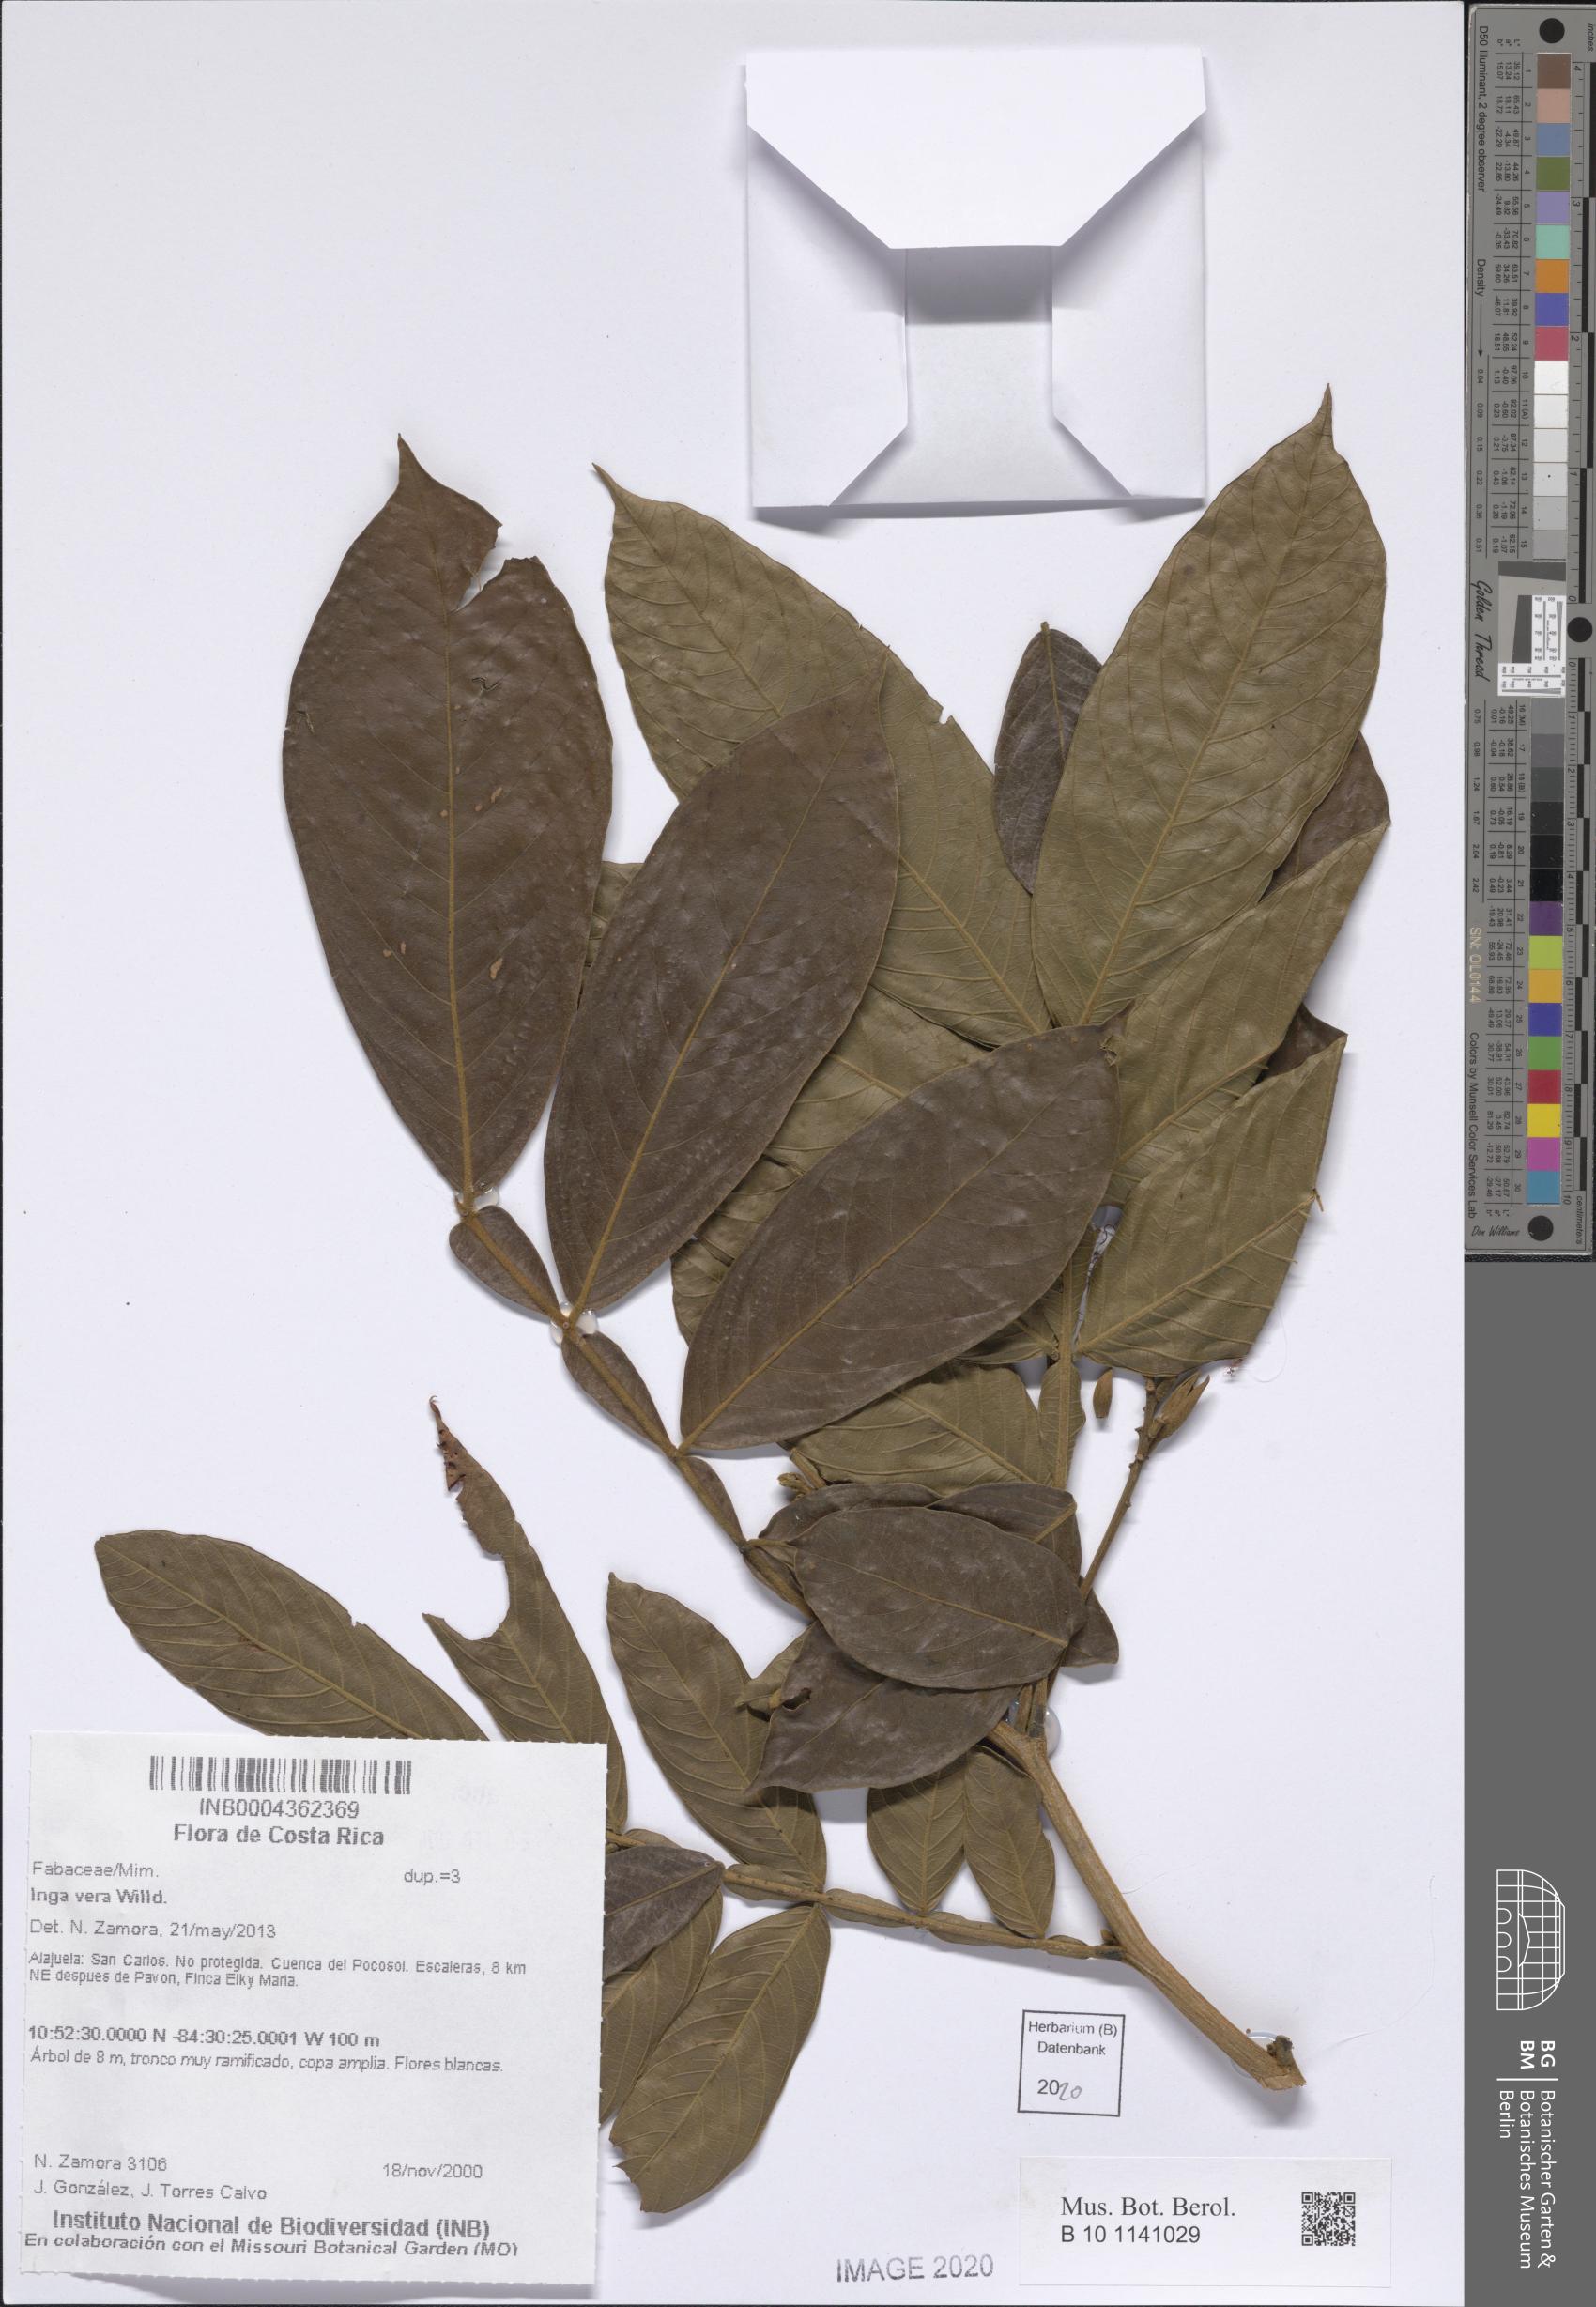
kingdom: Plantae
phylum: Tracheophyta
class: Magnoliopsida
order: Fabales
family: Fabaceae
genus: Inga
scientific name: Inga vera
